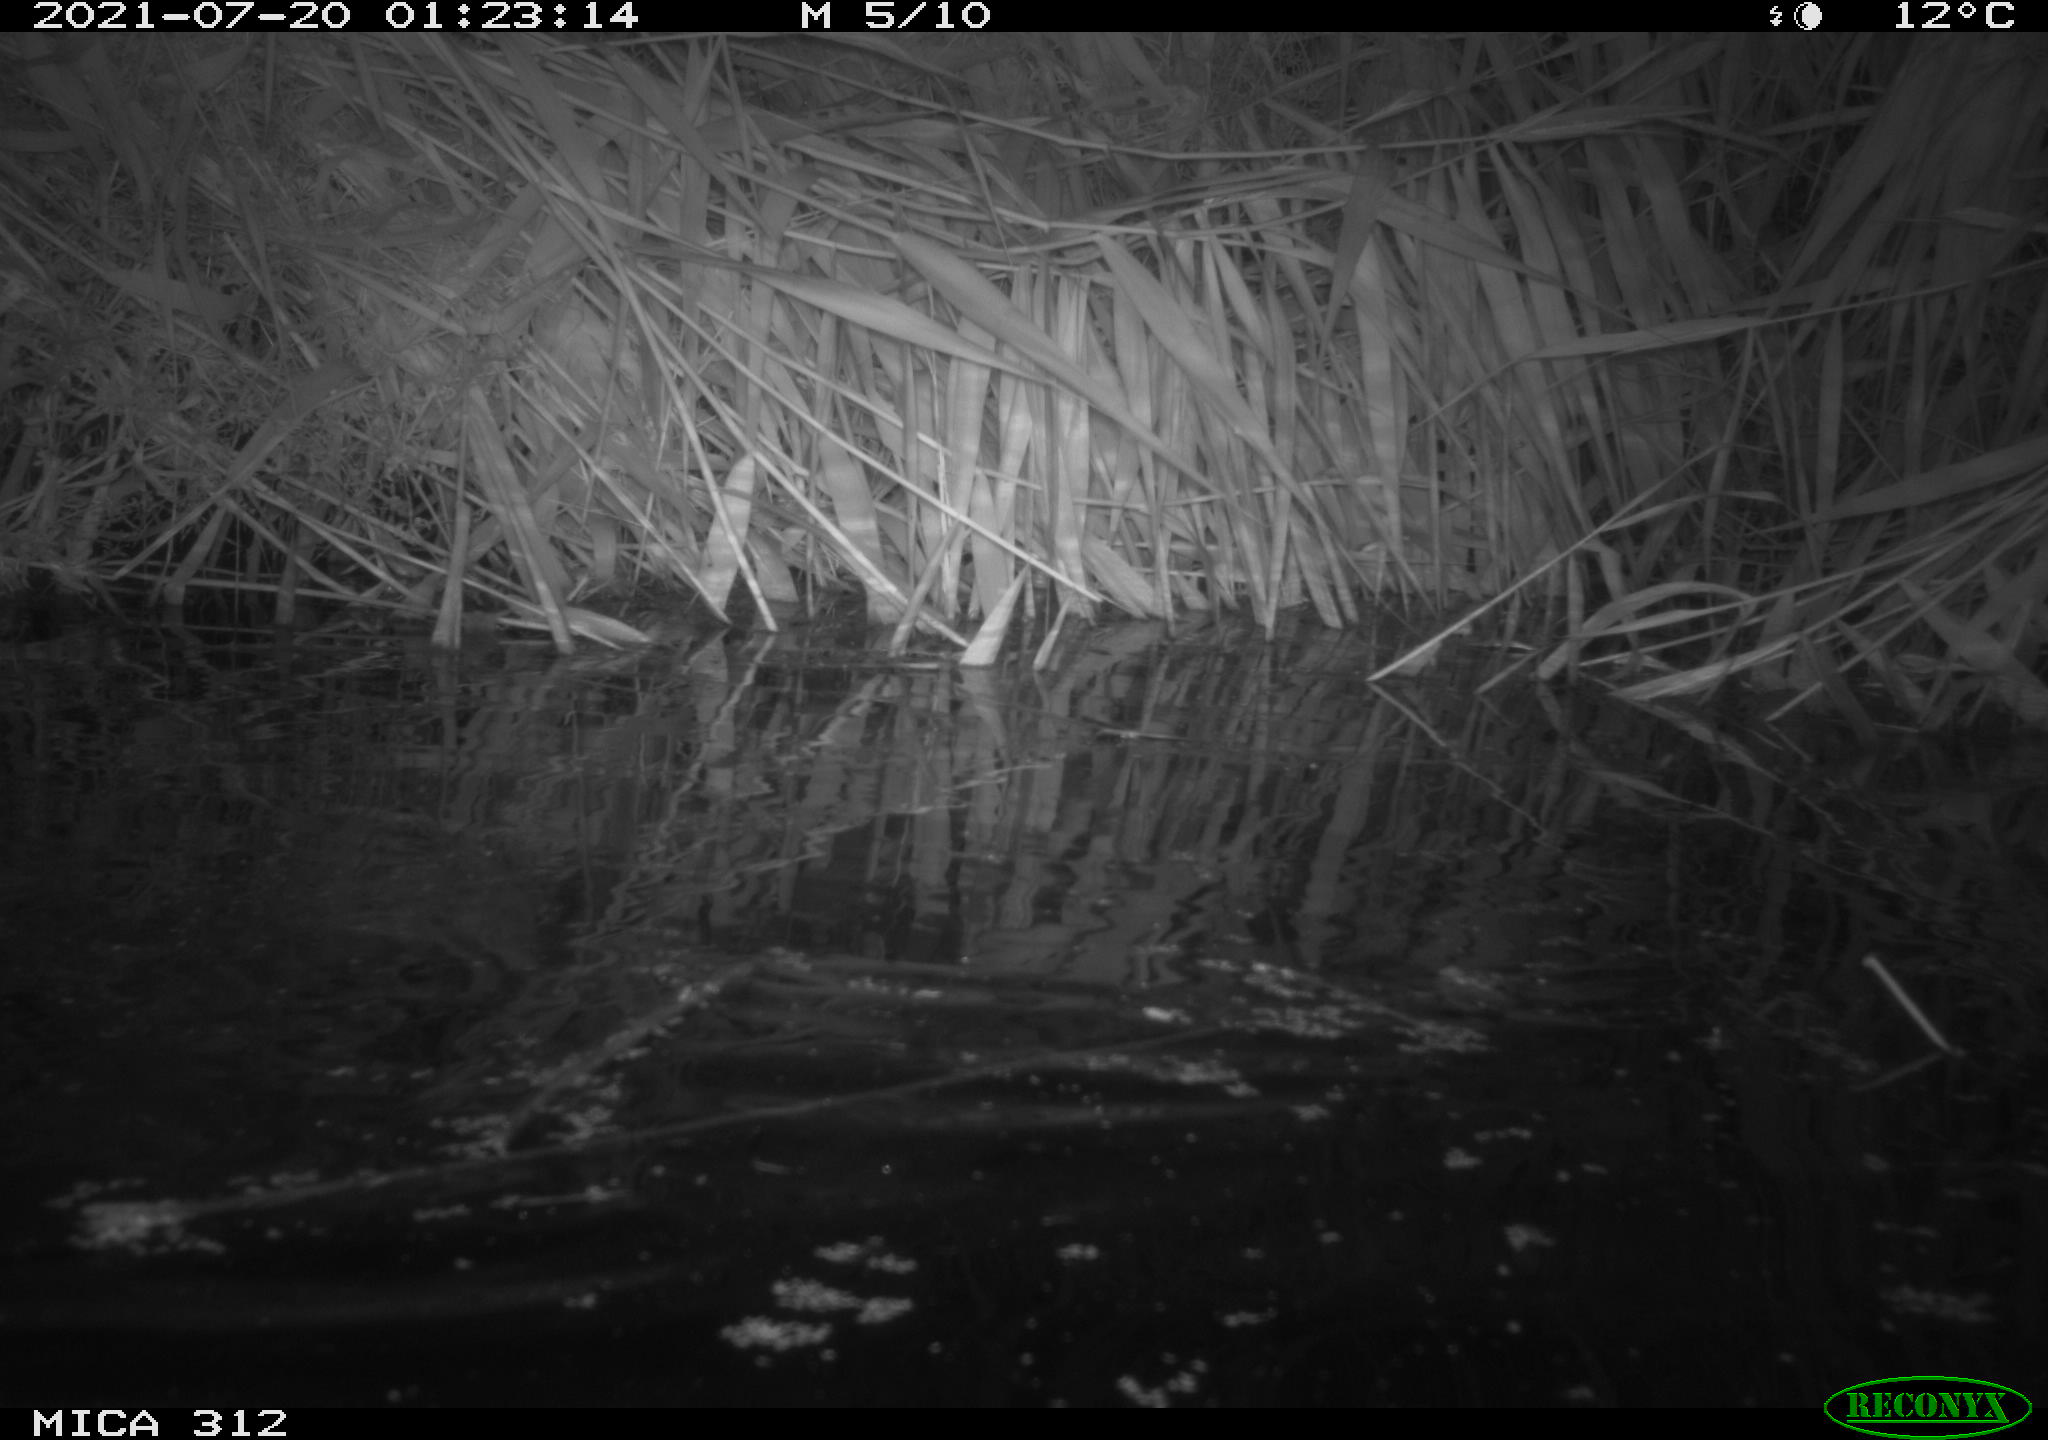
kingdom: Animalia
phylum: Chordata
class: Mammalia
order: Rodentia
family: Muridae
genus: Rattus
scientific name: Rattus norvegicus
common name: Brown rat
